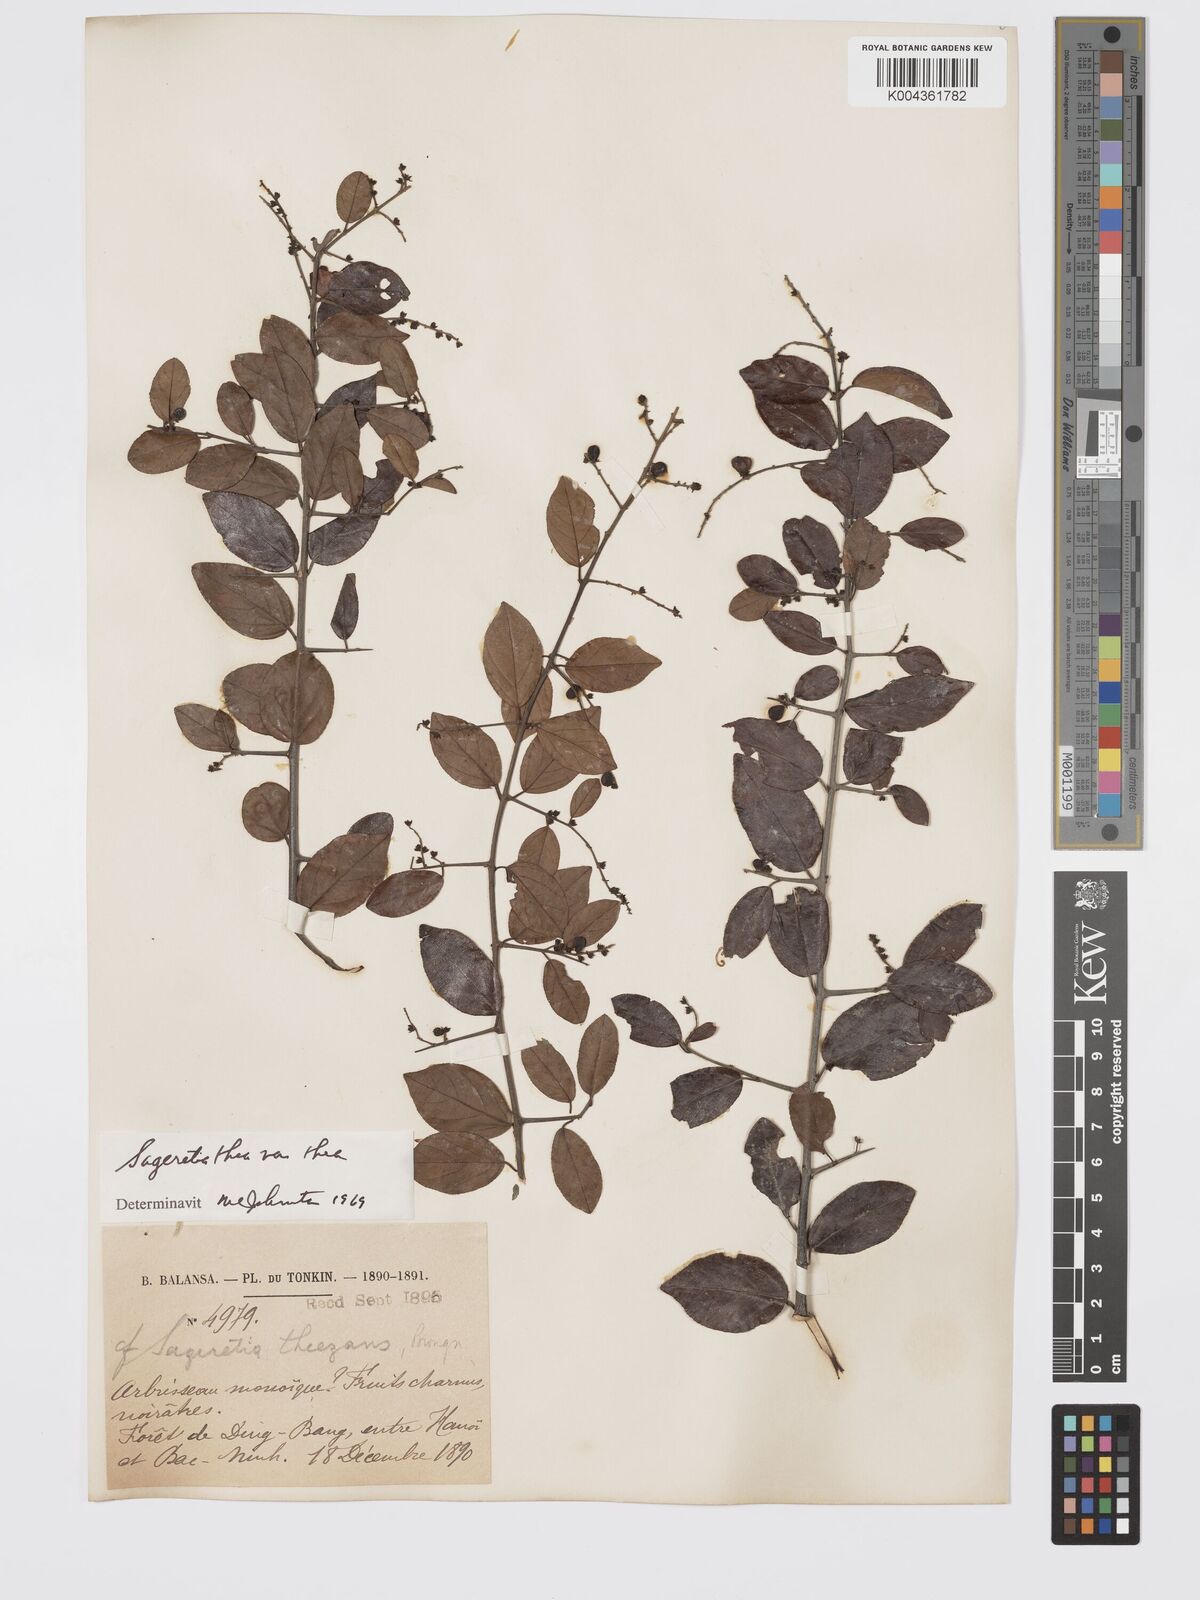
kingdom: Plantae
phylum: Tracheophyta
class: Magnoliopsida
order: Rosales
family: Rhamnaceae
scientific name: Rhamnaceae
